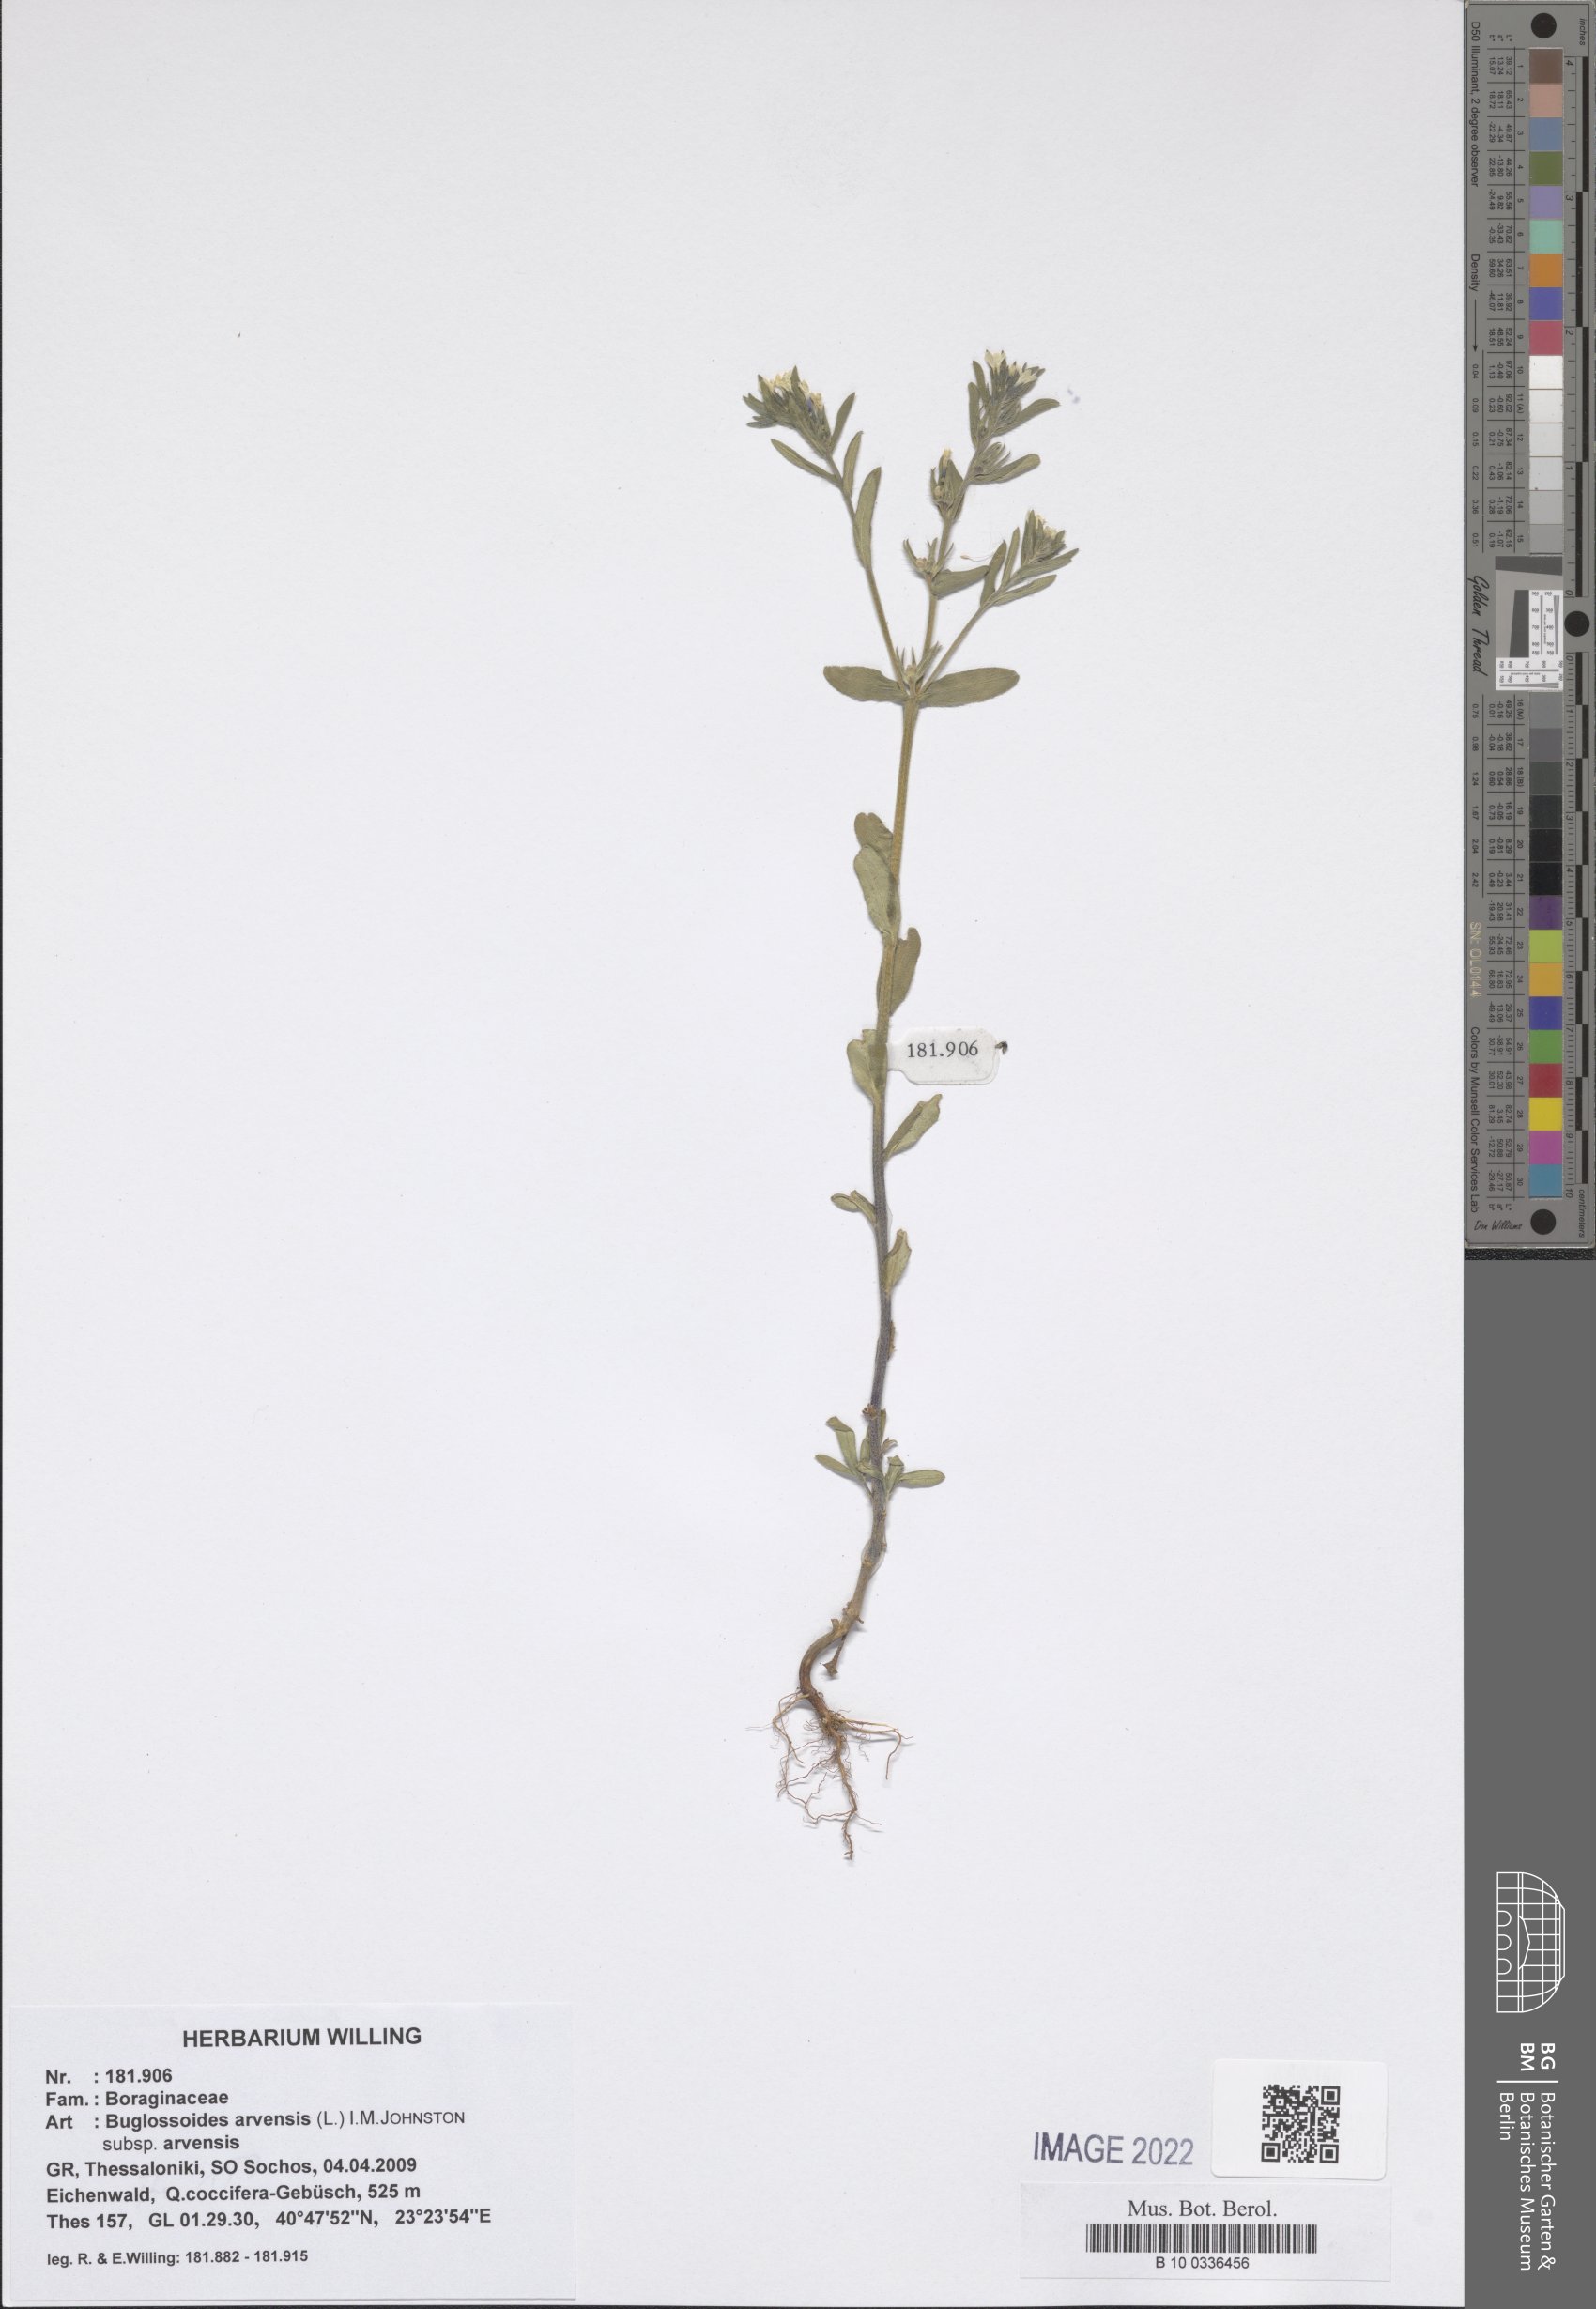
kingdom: Plantae
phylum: Tracheophyta
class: Magnoliopsida
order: Boraginales
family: Boraginaceae
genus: Buglossoides
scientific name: Buglossoides arvensis
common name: Corn gromwell
